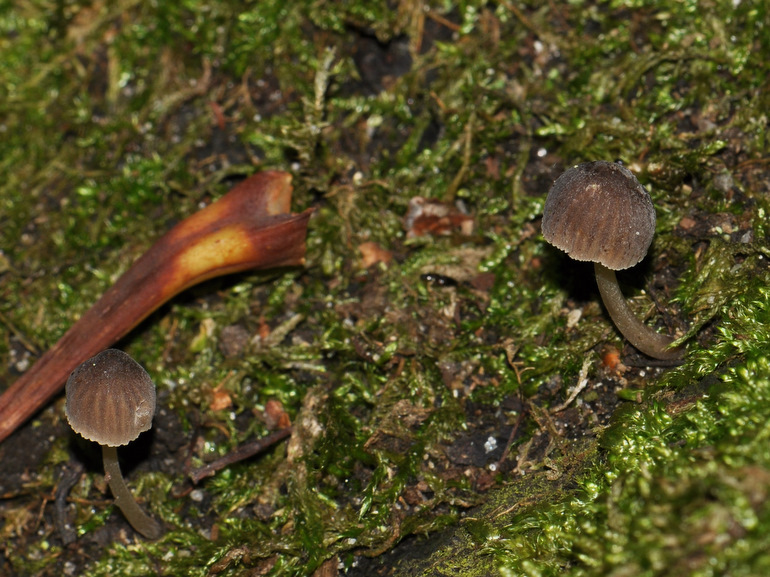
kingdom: Fungi
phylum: Basidiomycota
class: Agaricomycetes
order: Agaricales
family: Mycenaceae
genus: Mycena
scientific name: Mycena erubescens
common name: galde-huesvamp
